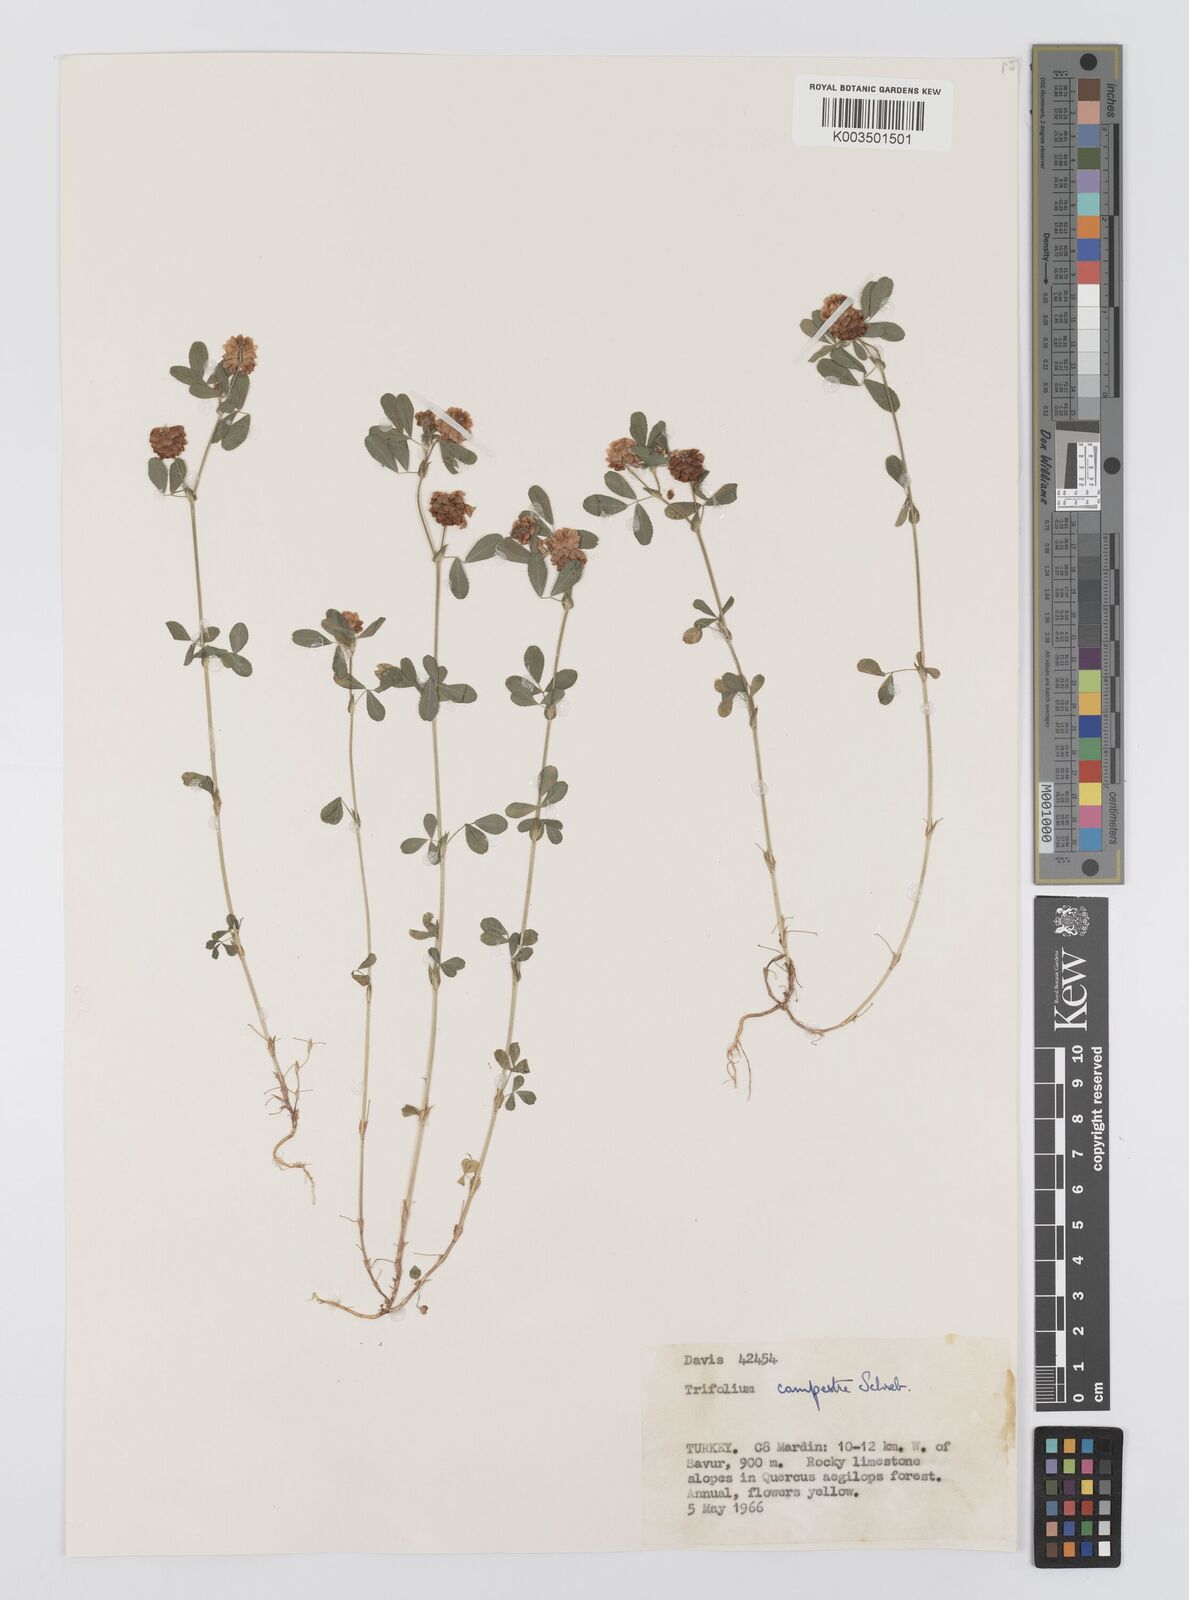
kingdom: Plantae
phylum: Tracheophyta
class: Magnoliopsida
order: Fabales
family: Fabaceae
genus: Trifolium
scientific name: Trifolium campestre
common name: Field clover
